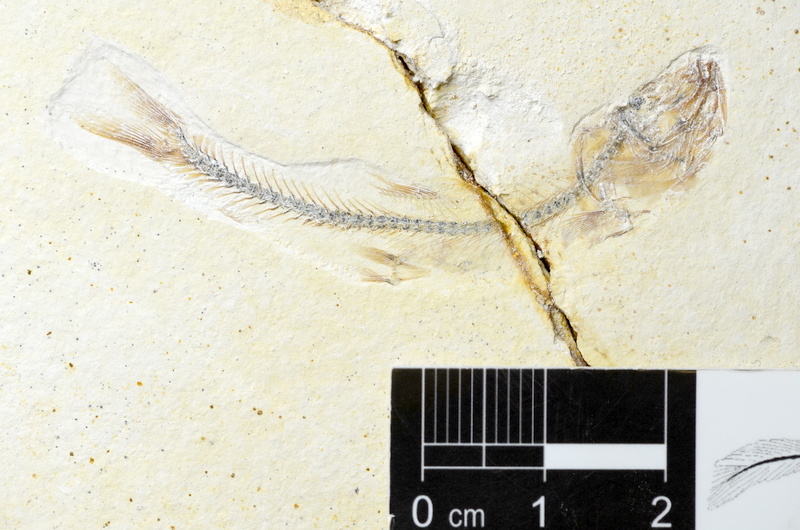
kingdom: Animalia
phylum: Chordata
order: Salmoniformes
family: Orthogonikleithridae
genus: Orthogonikleithrus
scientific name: Orthogonikleithrus hoelli
